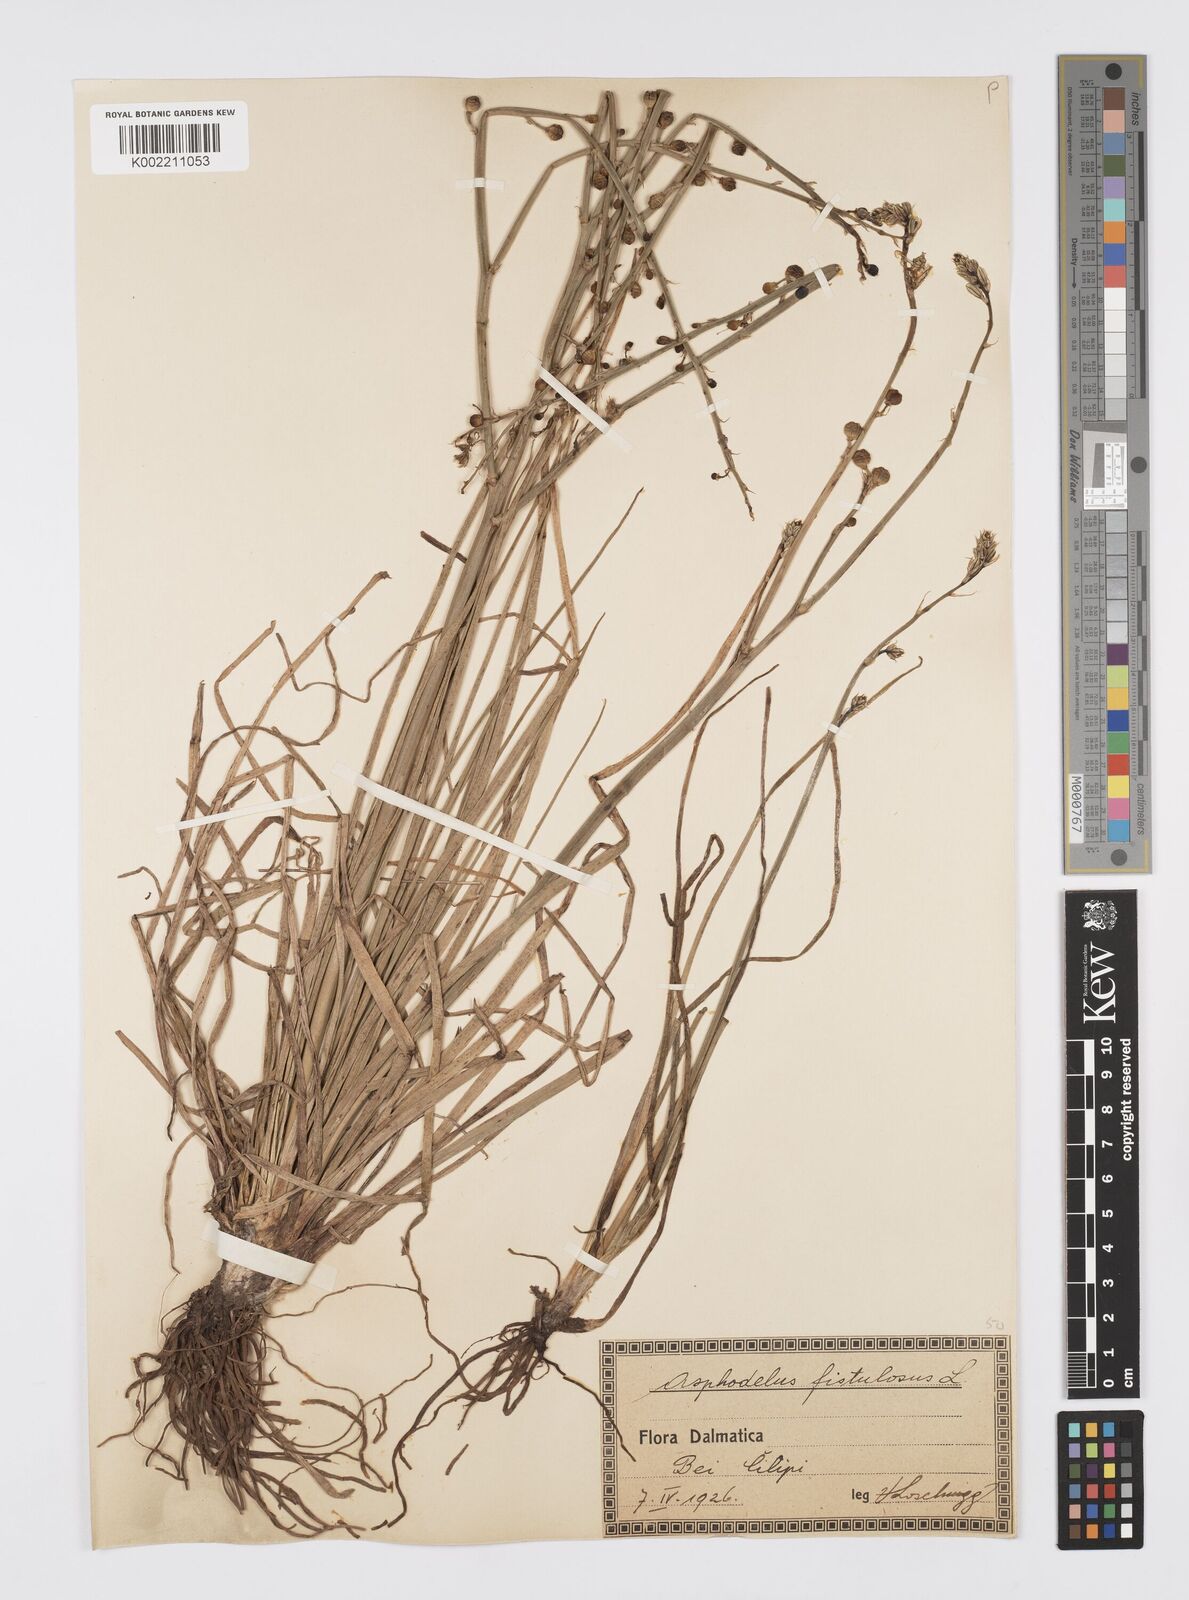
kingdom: Plantae
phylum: Tracheophyta
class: Liliopsida
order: Asparagales
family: Asphodelaceae
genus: Asphodelus
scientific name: Asphodelus fistulosus
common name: Onionweed
